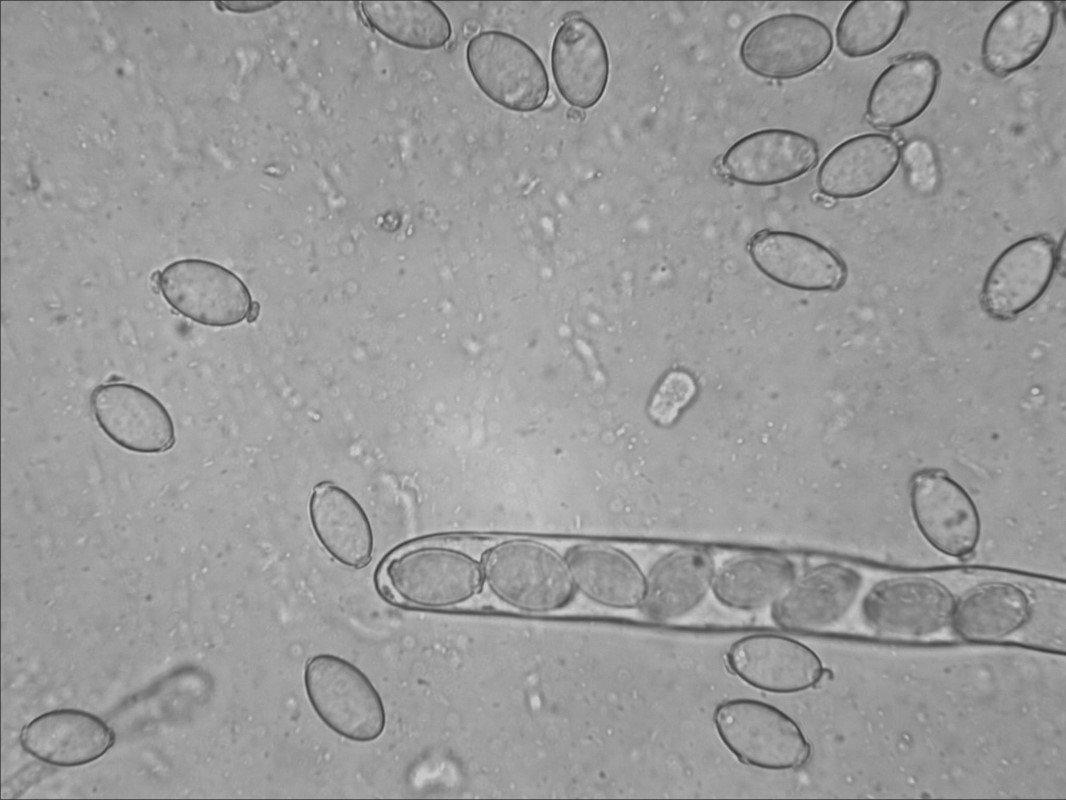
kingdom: Fungi
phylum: Ascomycota
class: Pezizomycetes
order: Pezizales
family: Morchellaceae
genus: Disciotis
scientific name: Disciotis venosa
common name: klor-bægermorkel
